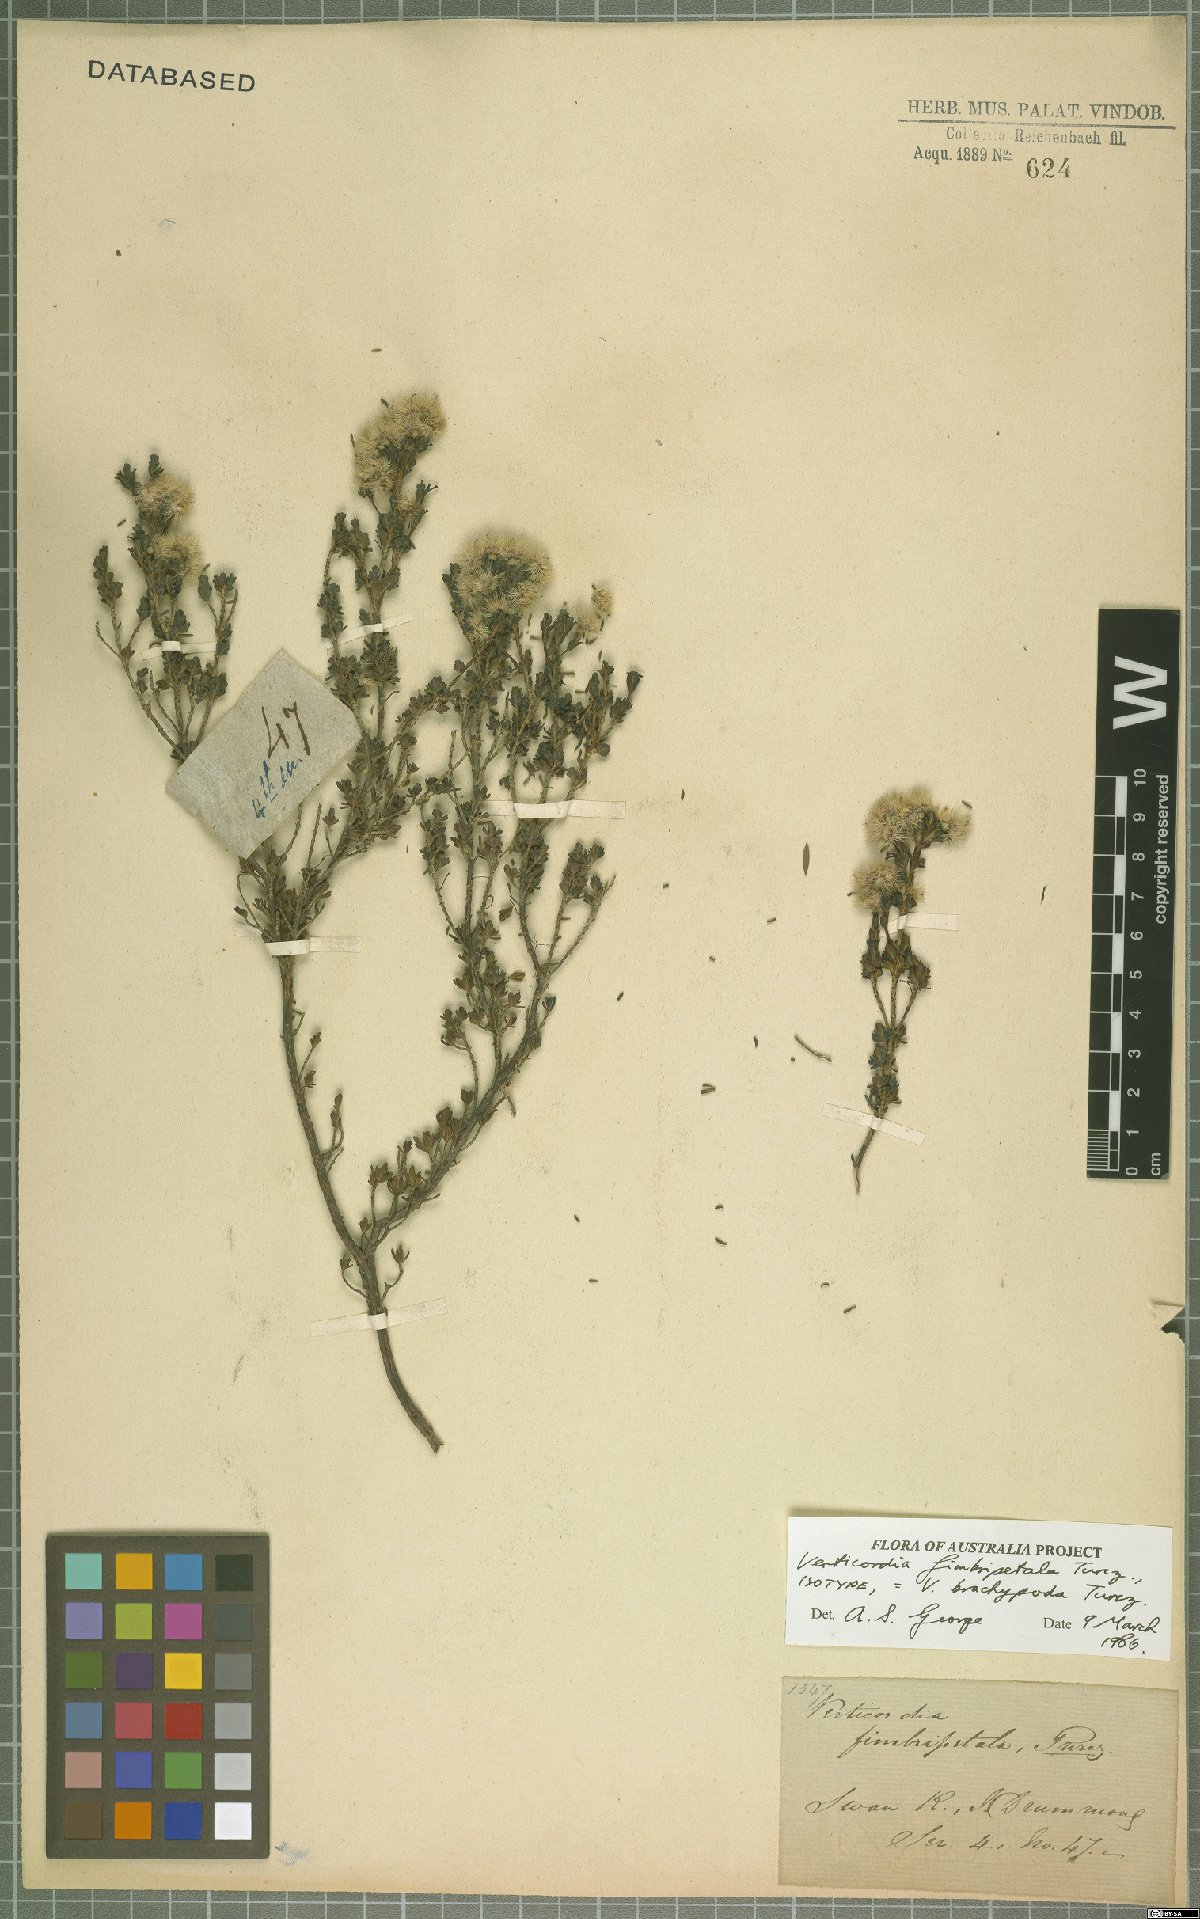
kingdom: Plantae
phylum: Tracheophyta
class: Magnoliopsida
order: Myrtales
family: Myrtaceae
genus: Verticordia
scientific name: Verticordia brachypoda
